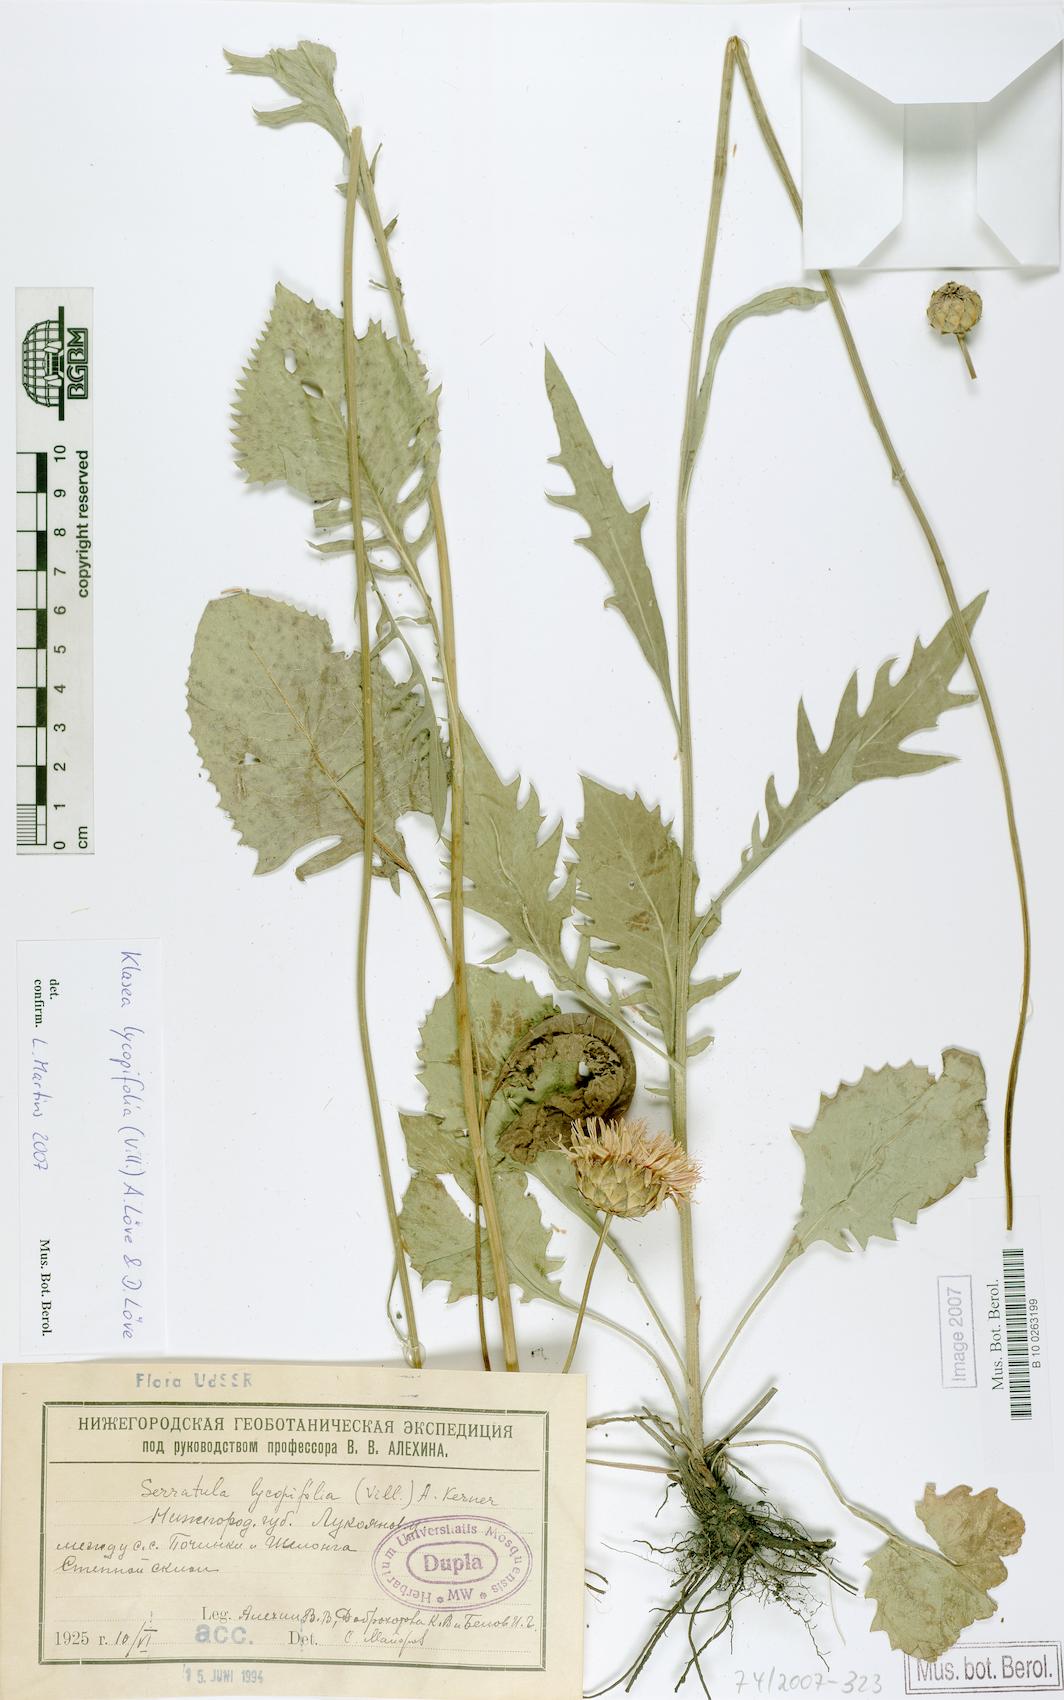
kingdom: Plantae
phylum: Tracheophyta
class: Magnoliopsida
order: Asterales
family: Asteraceae
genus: Klasea
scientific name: Klasea lycopifolia
